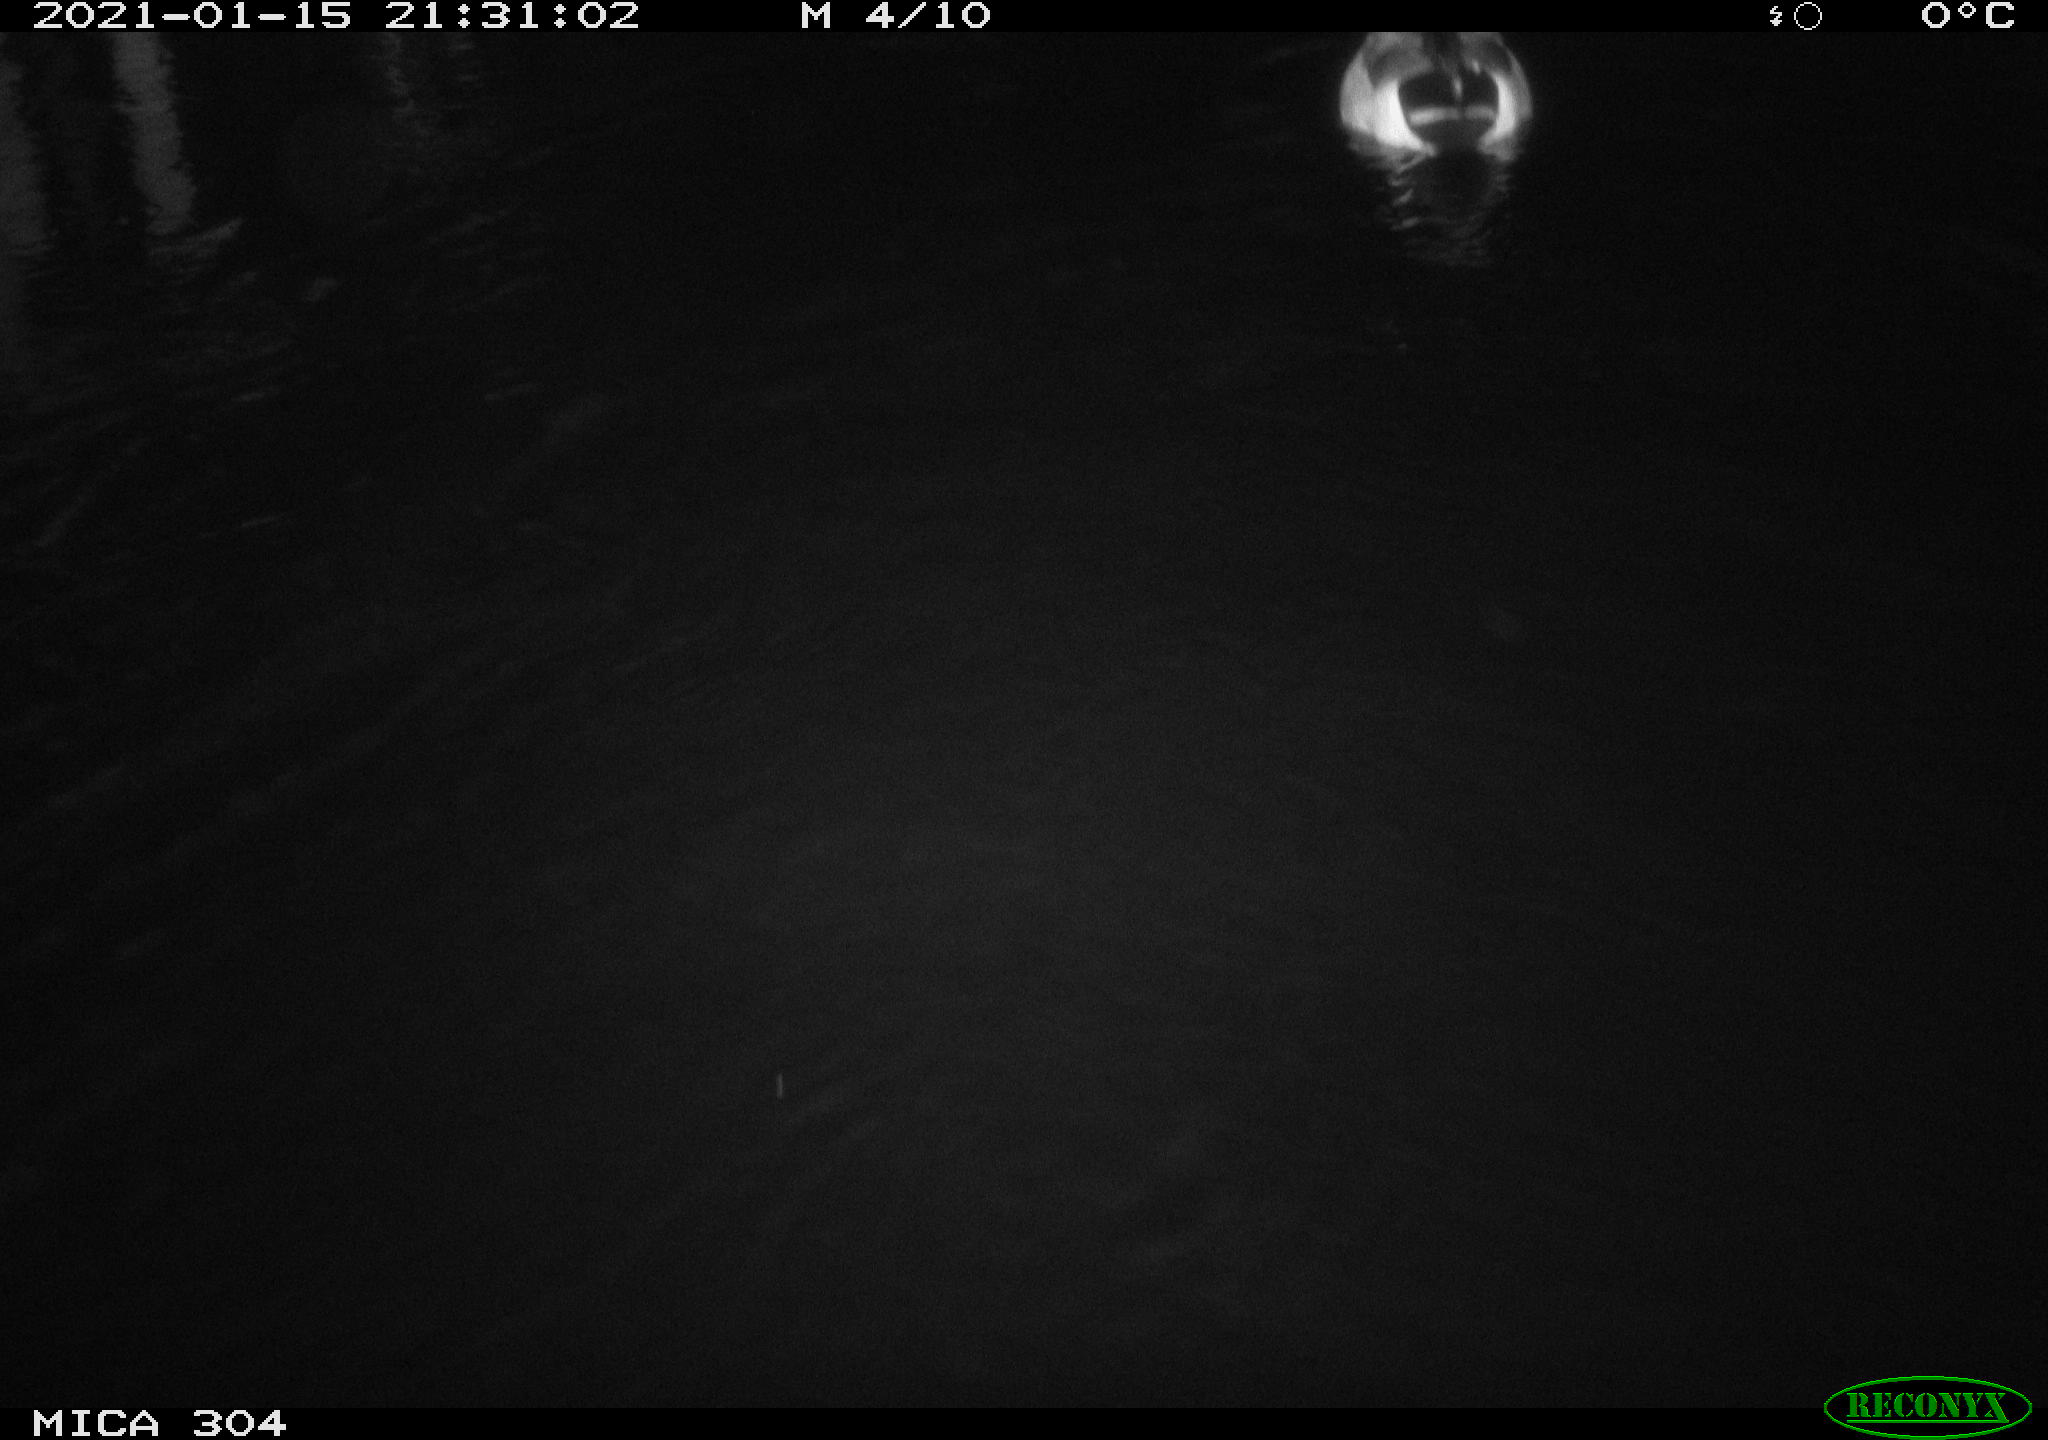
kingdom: Animalia
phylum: Chordata
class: Aves
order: Anseriformes
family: Anatidae
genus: Anas
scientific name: Anas platyrhynchos
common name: Mallard
